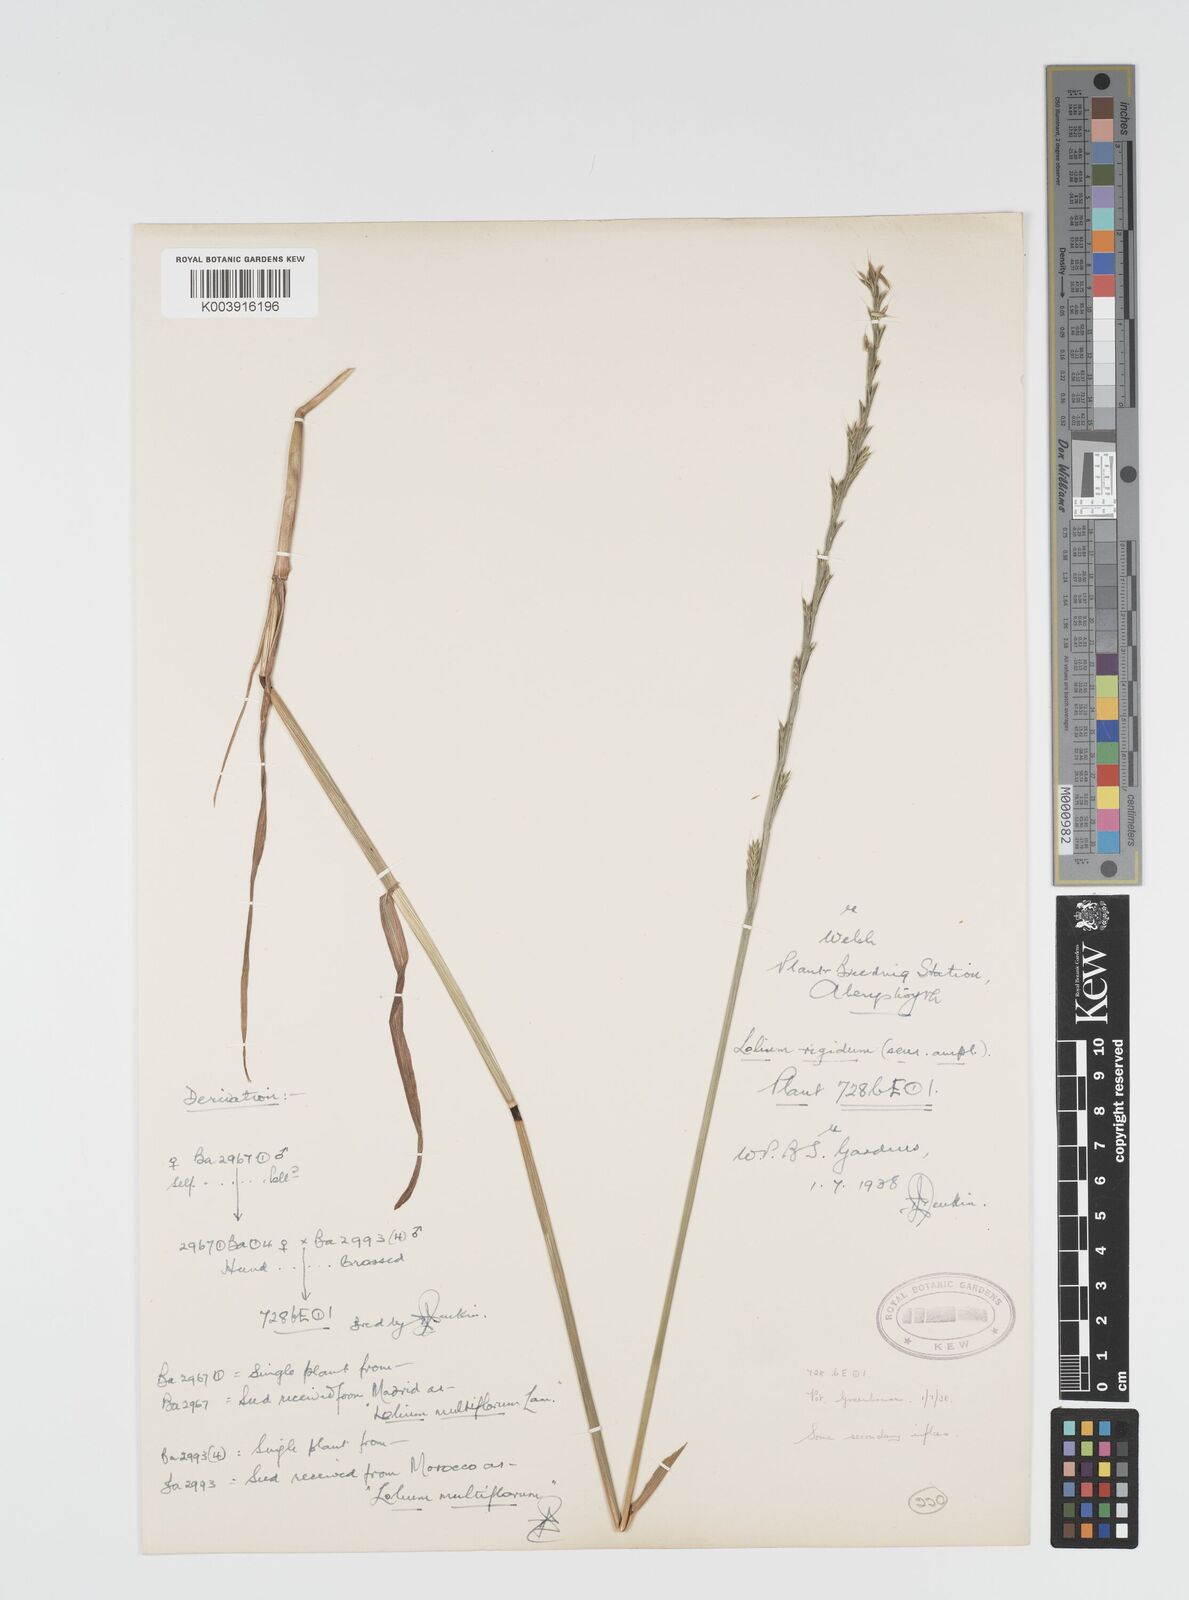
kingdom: Plantae
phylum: Tracheophyta
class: Liliopsida
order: Poales
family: Poaceae
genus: Lolium
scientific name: Lolium rigidum
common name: Wimmera ryegrass
